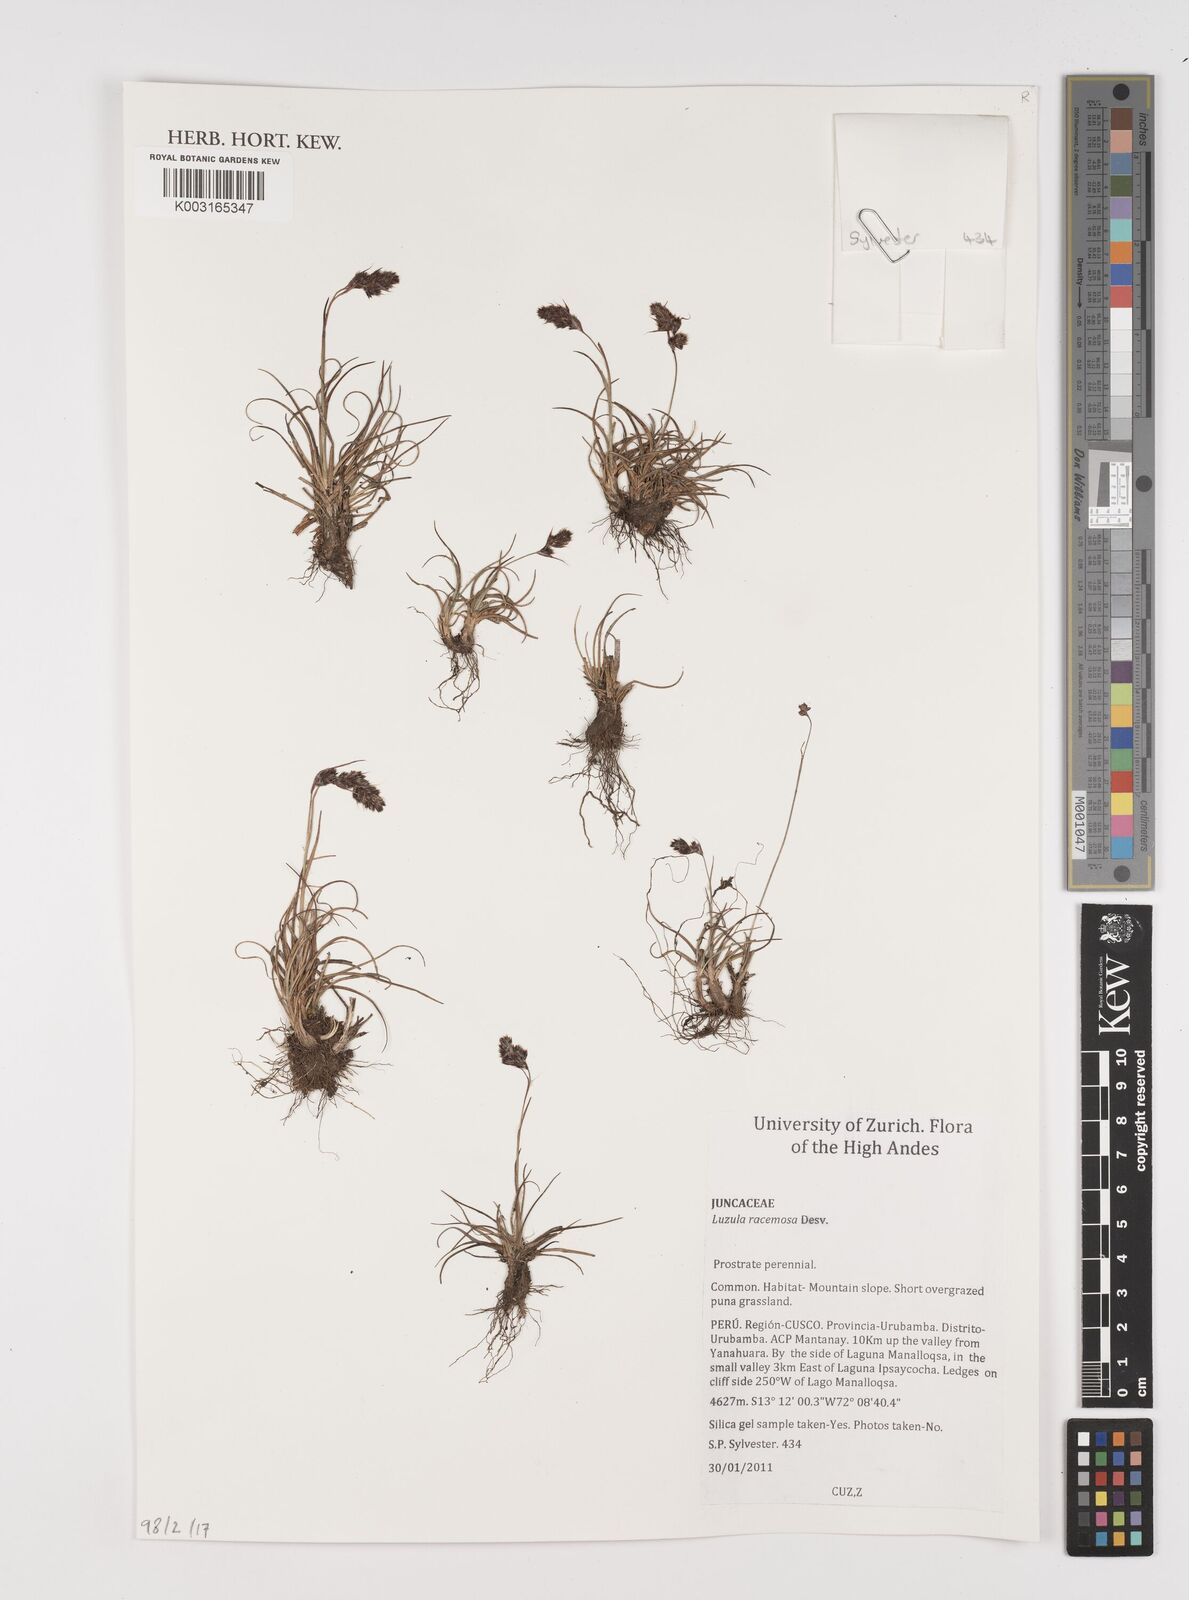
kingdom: Plantae
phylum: Tracheophyta
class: Liliopsida
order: Poales
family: Juncaceae
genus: Luzula
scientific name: Luzula racemosa
